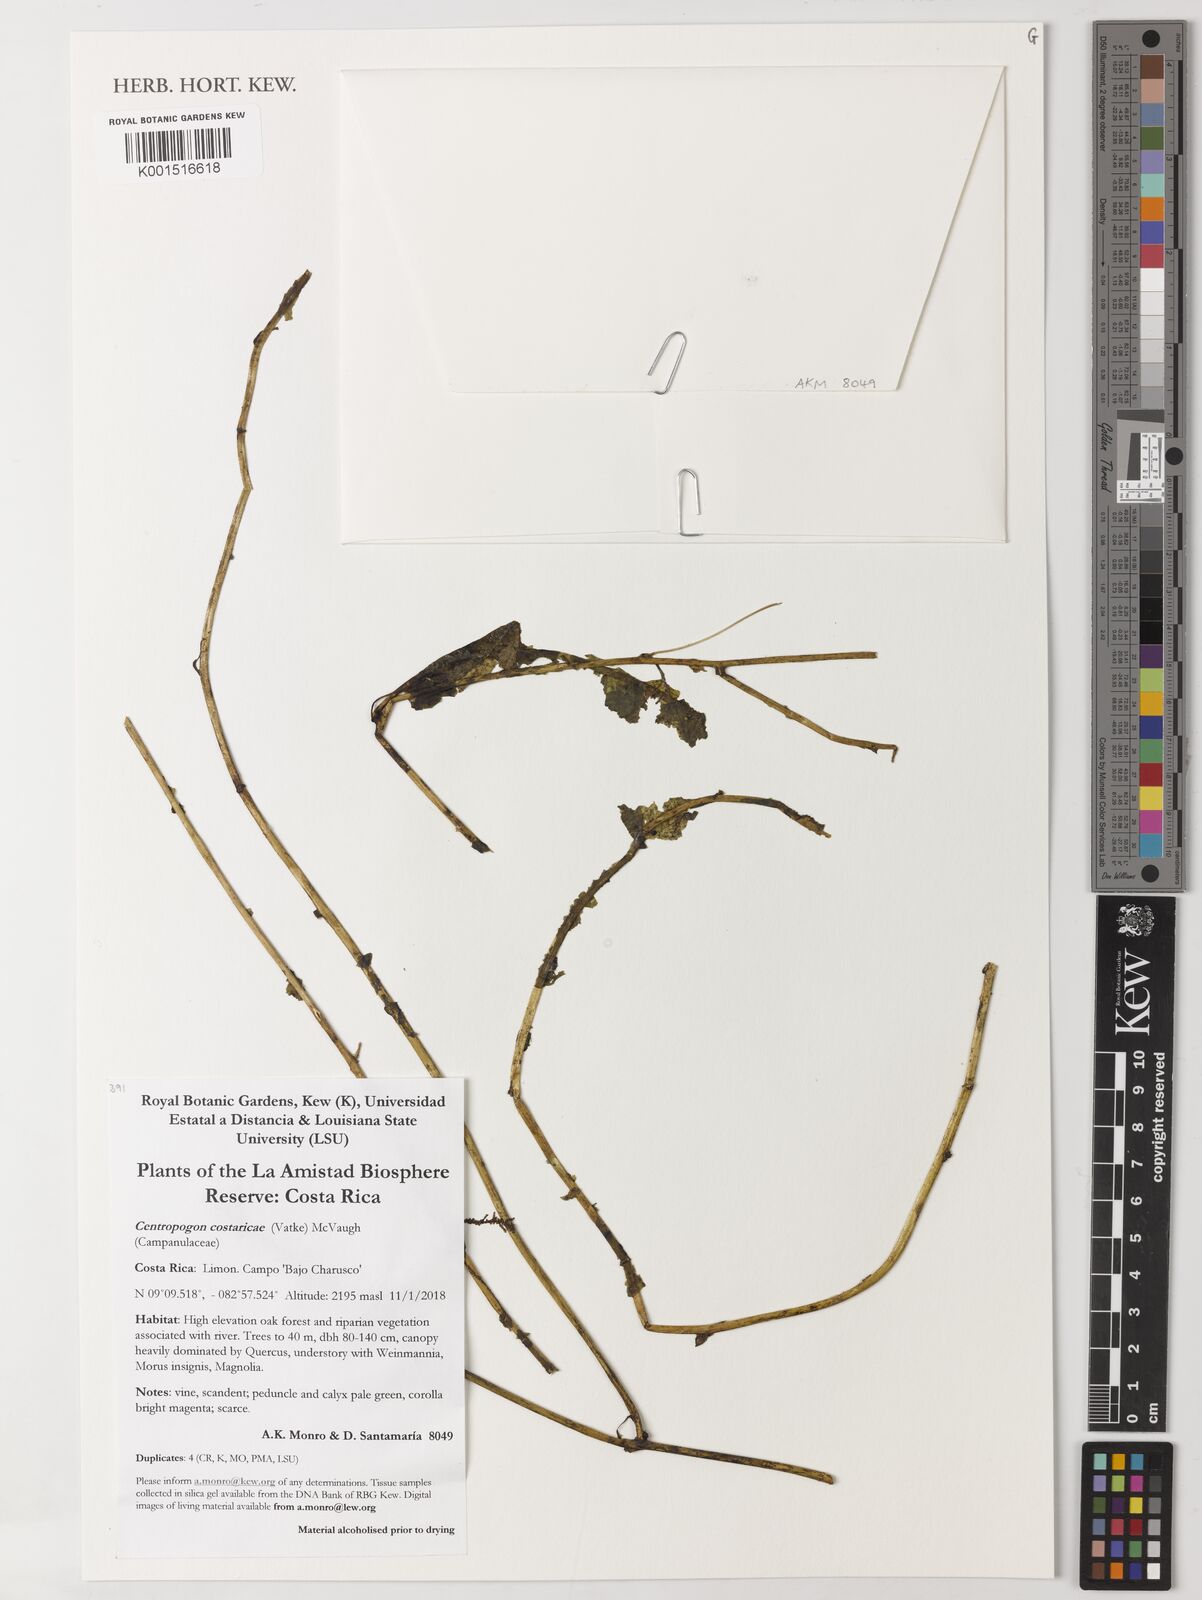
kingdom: Plantae
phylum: Tracheophyta
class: Magnoliopsida
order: Asterales
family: Campanulaceae
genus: Centropogon
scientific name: Centropogon costaricae
